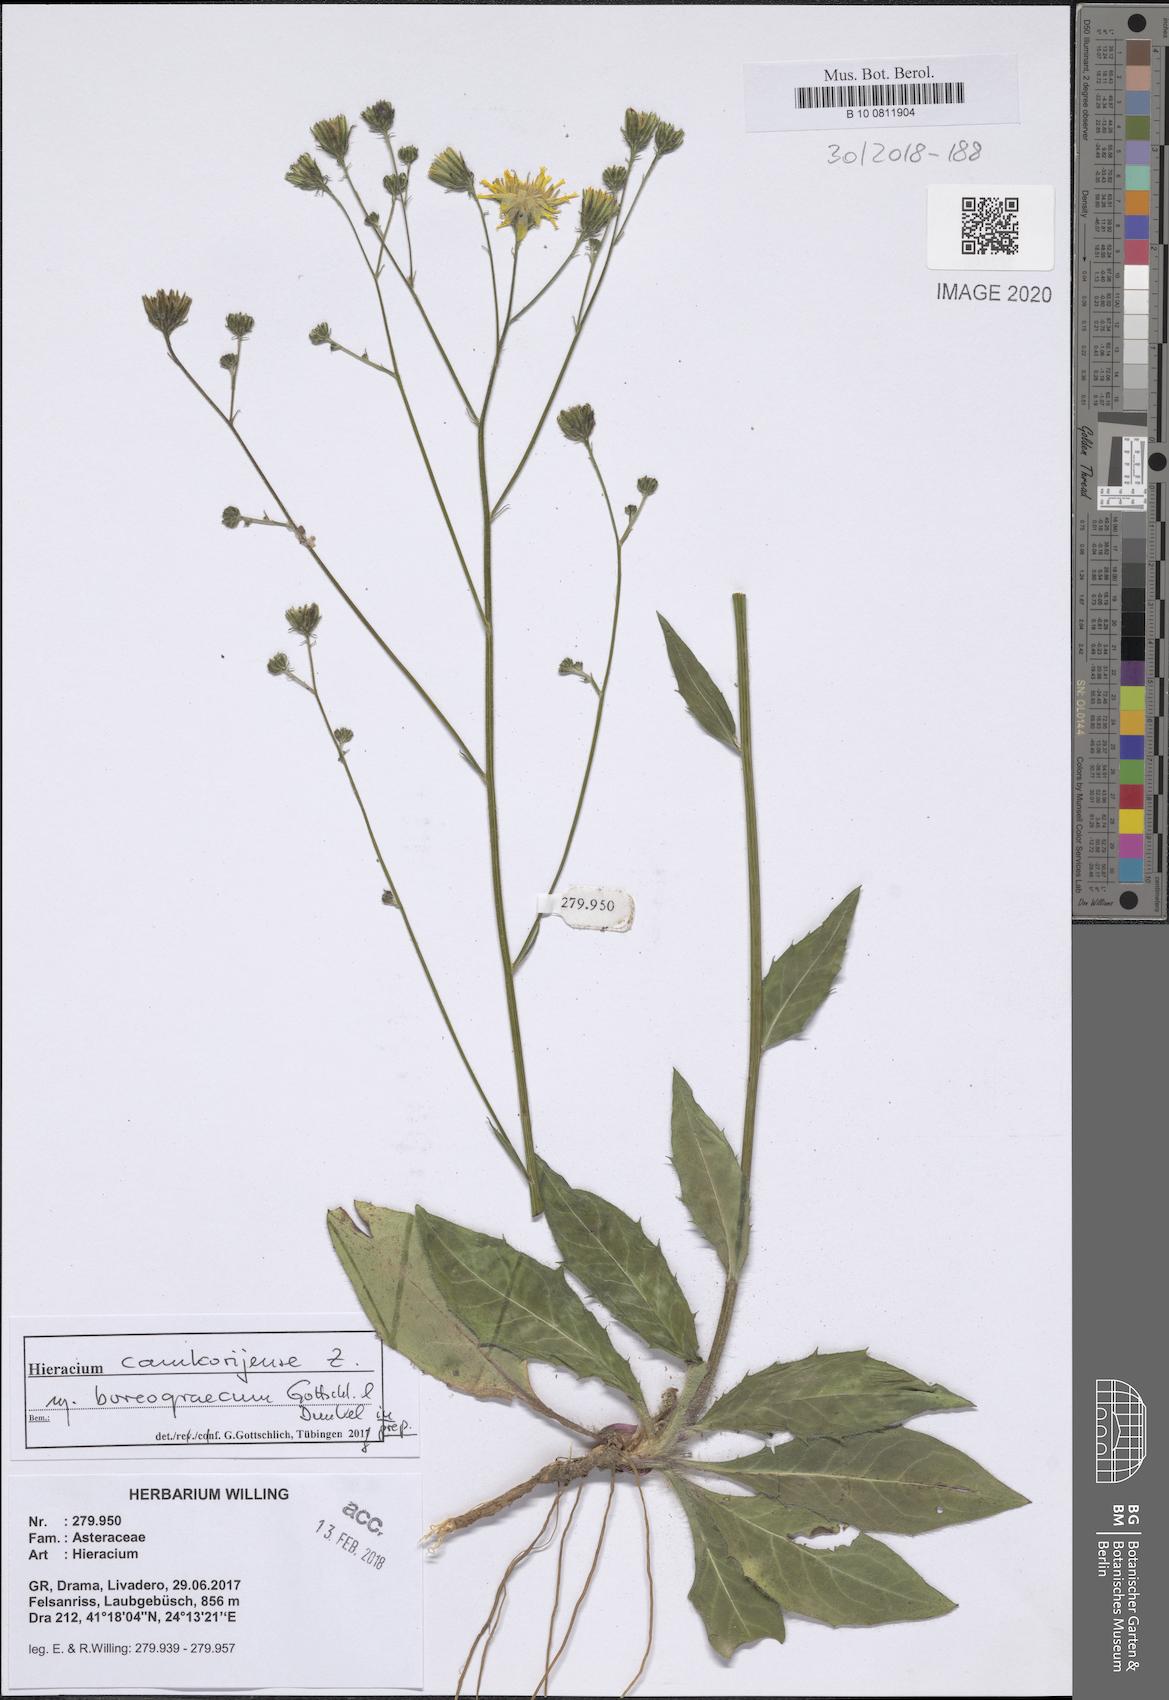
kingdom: Plantae
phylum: Tracheophyta
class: Magnoliopsida
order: Asterales
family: Asteraceae
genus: Hieracium
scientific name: Hieracium camkorijense
